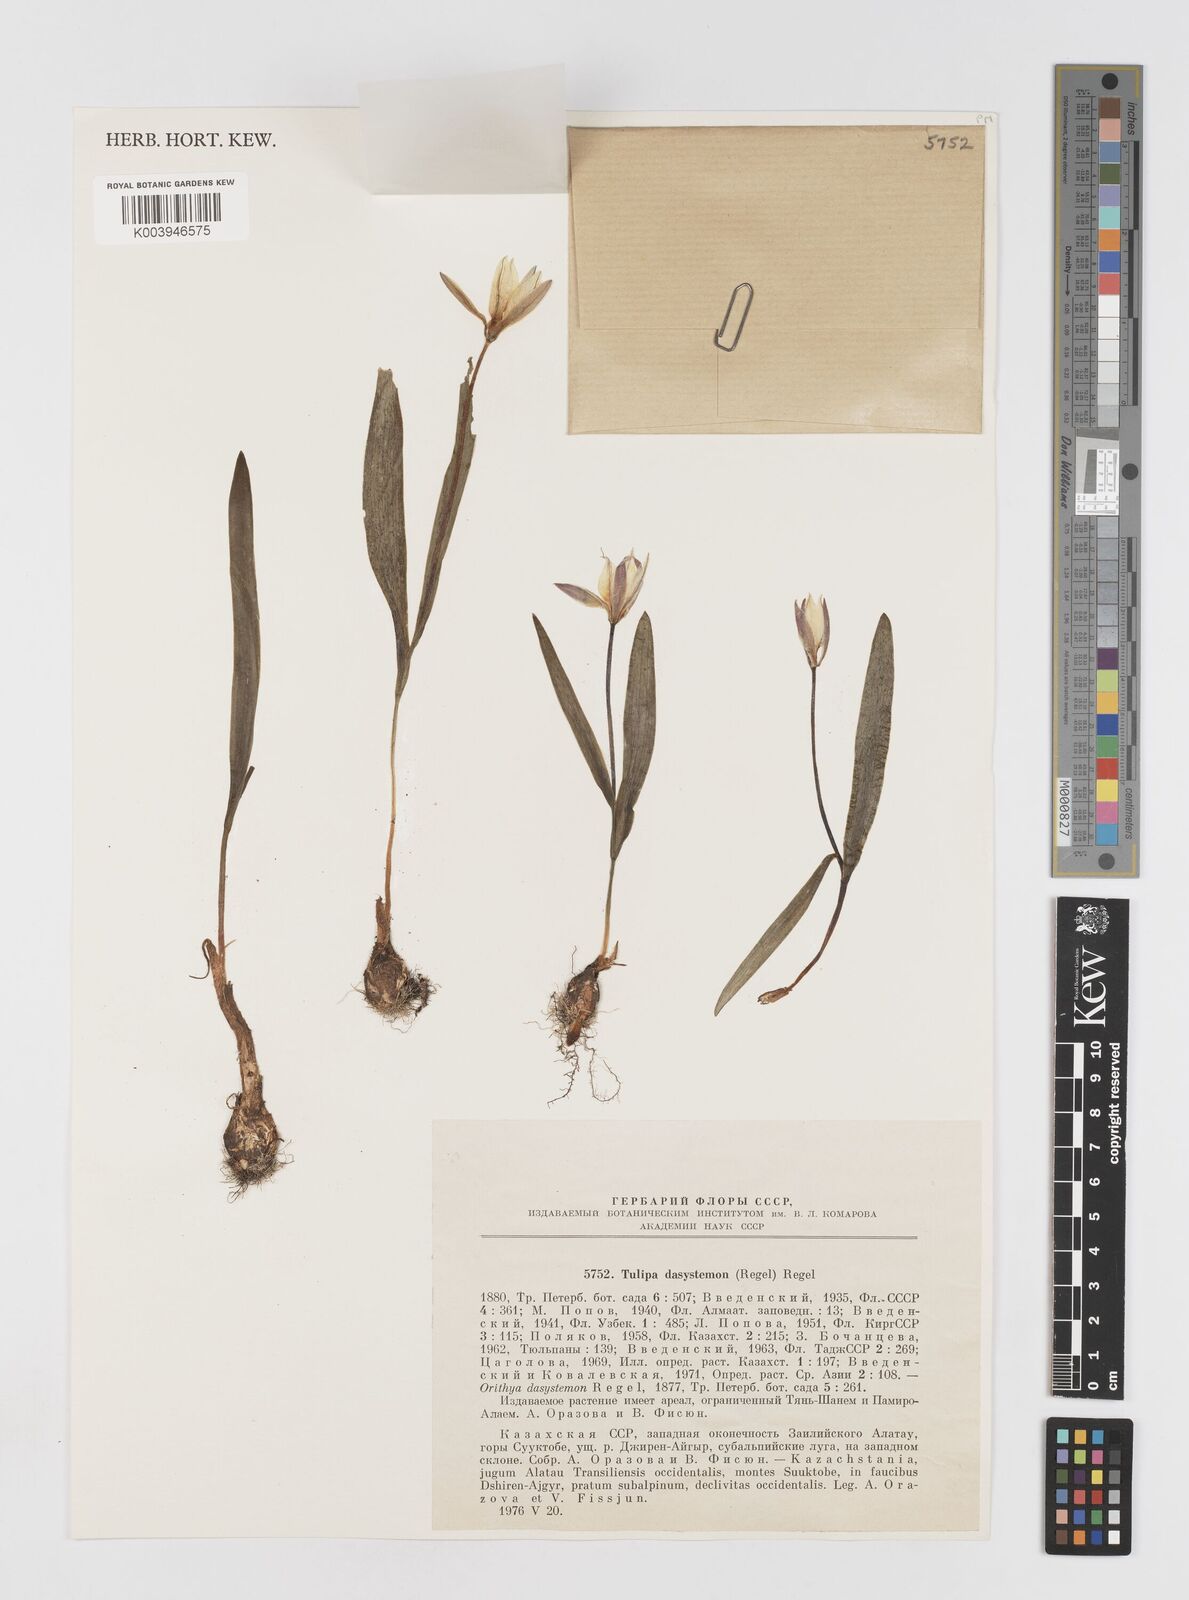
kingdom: Plantae
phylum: Tracheophyta
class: Liliopsida
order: Liliales
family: Liliaceae
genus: Tulipa
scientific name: Tulipa dasystemon
